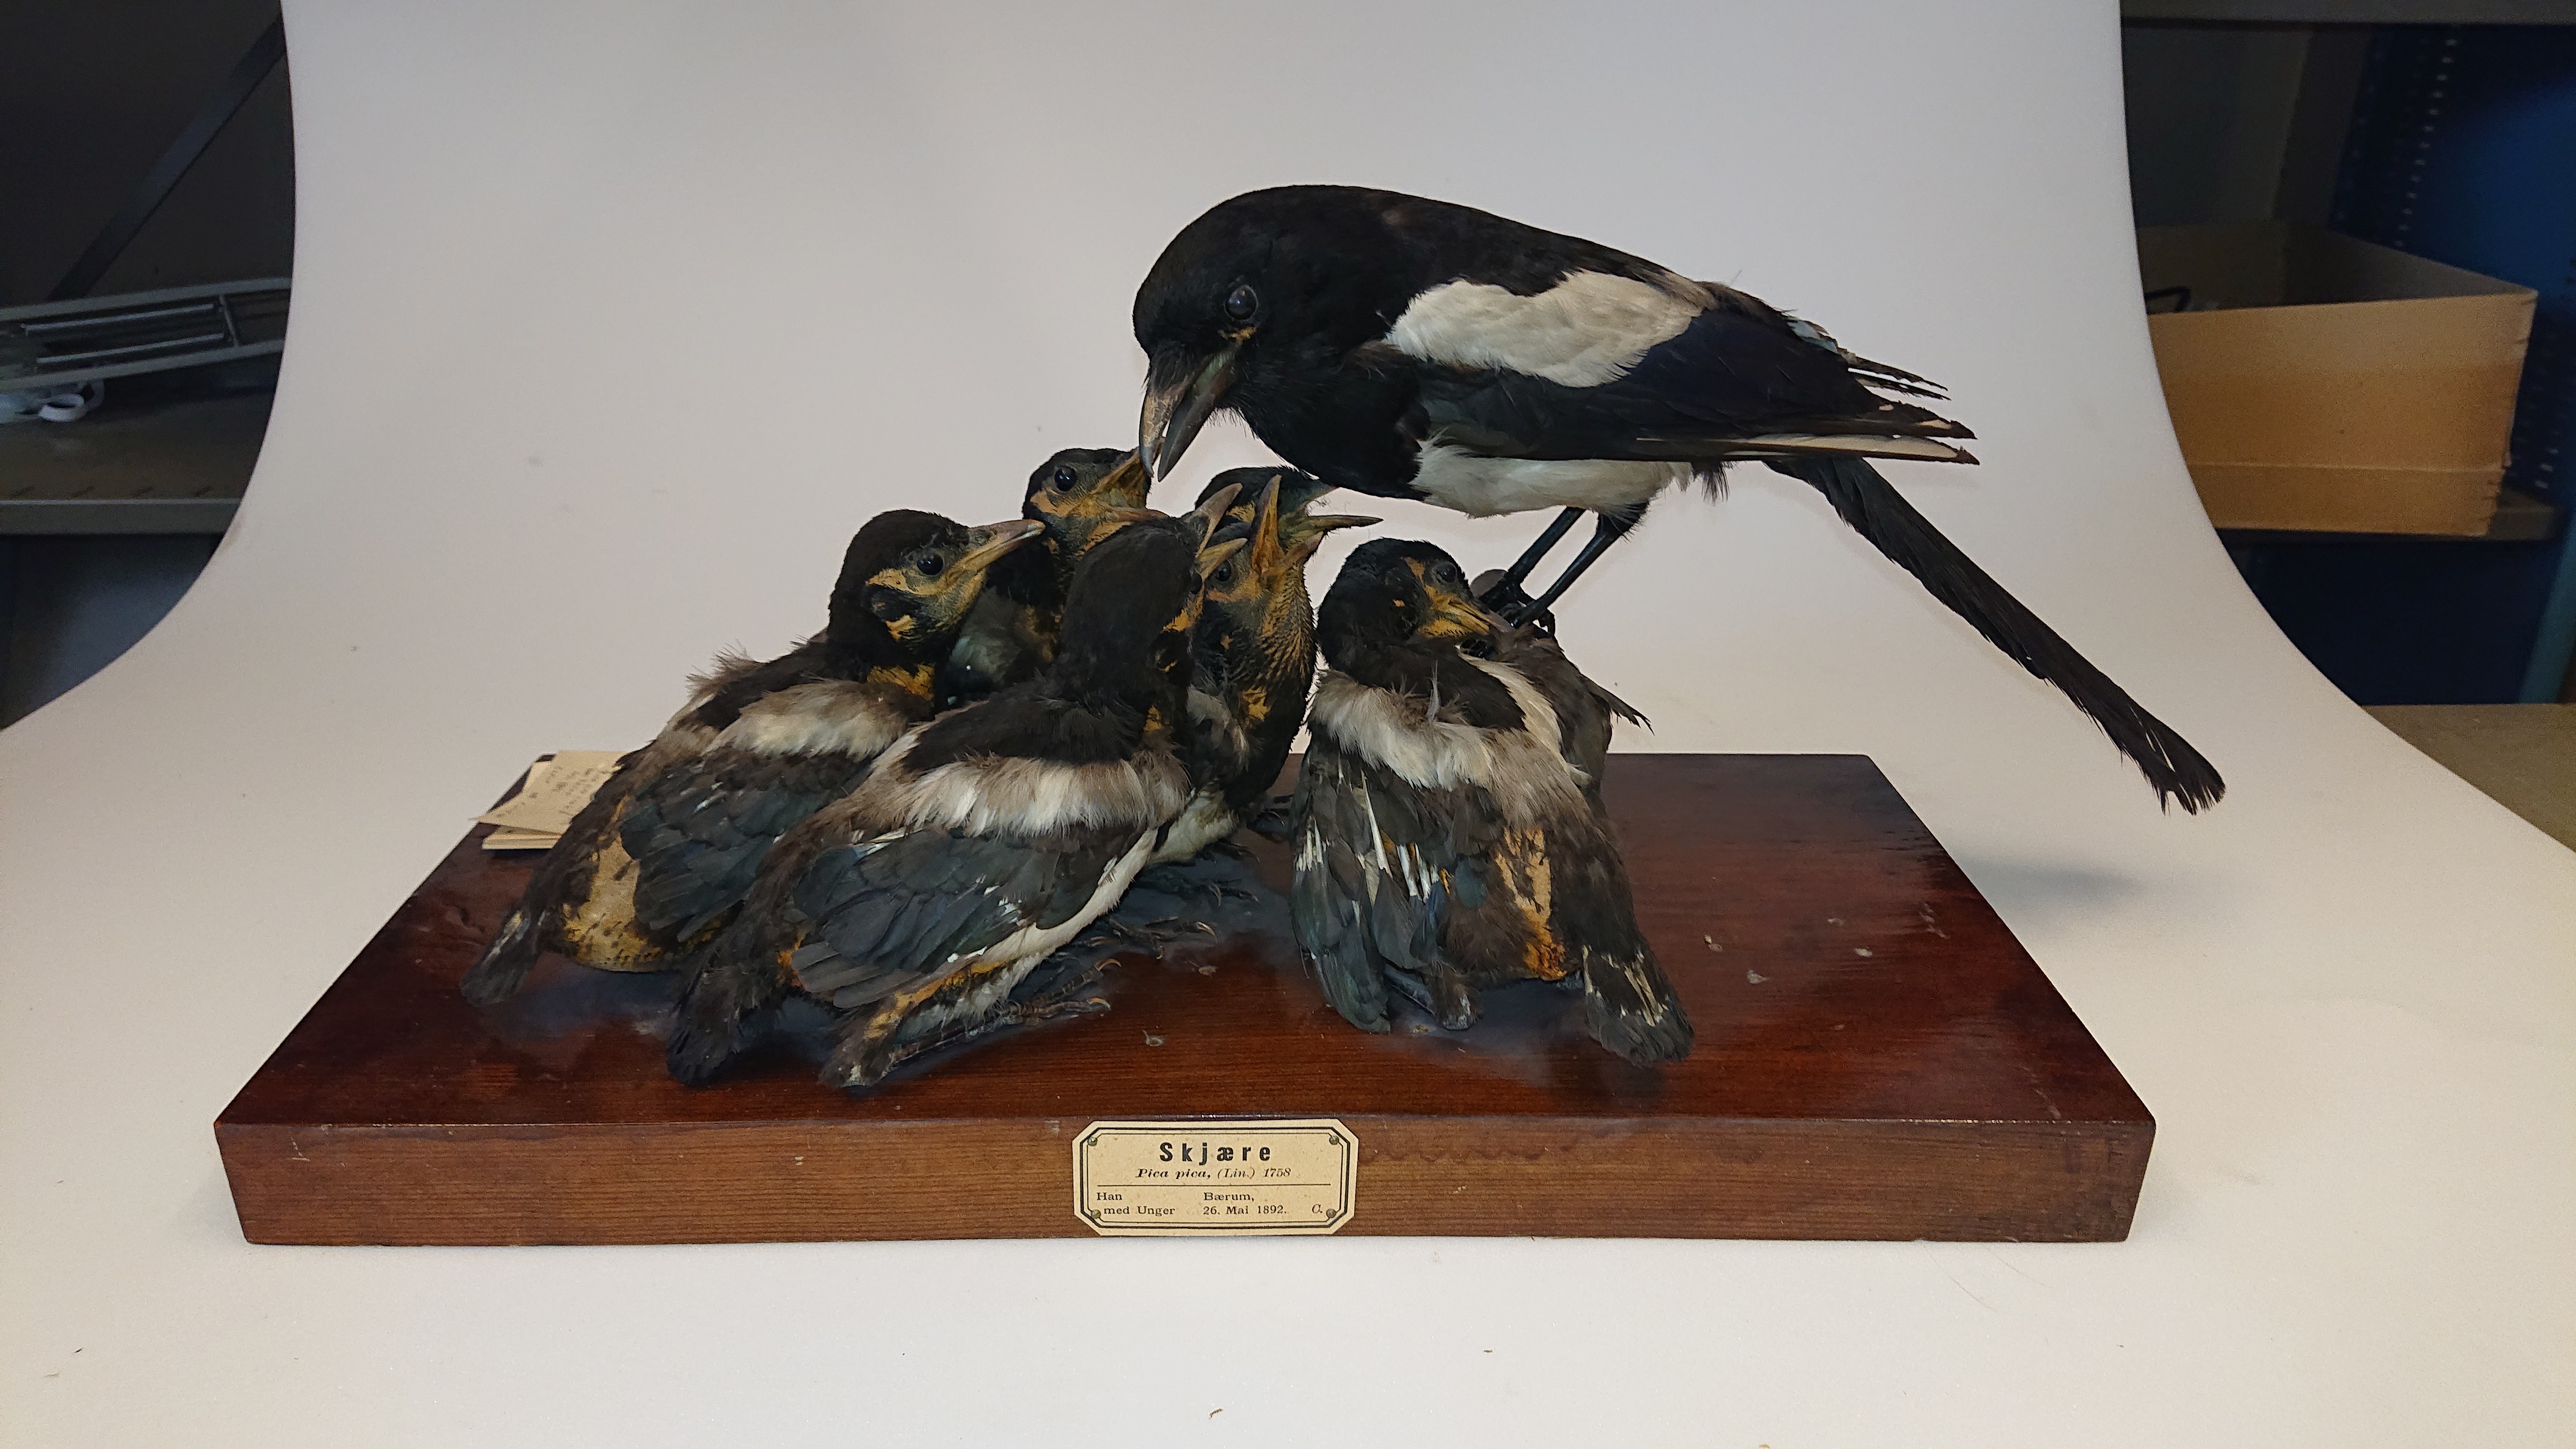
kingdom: Animalia
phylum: Chordata
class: Aves
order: Passeriformes
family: Corvidae
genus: Pica
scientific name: Pica pica
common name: Eurasian magpie
